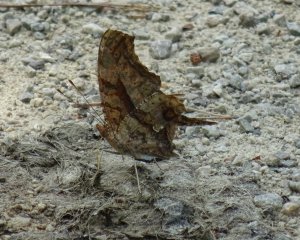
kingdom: Animalia
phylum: Arthropoda
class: Insecta
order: Lepidoptera
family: Nymphalidae
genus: Polygonia
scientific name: Polygonia interrogationis
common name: Question Mark
